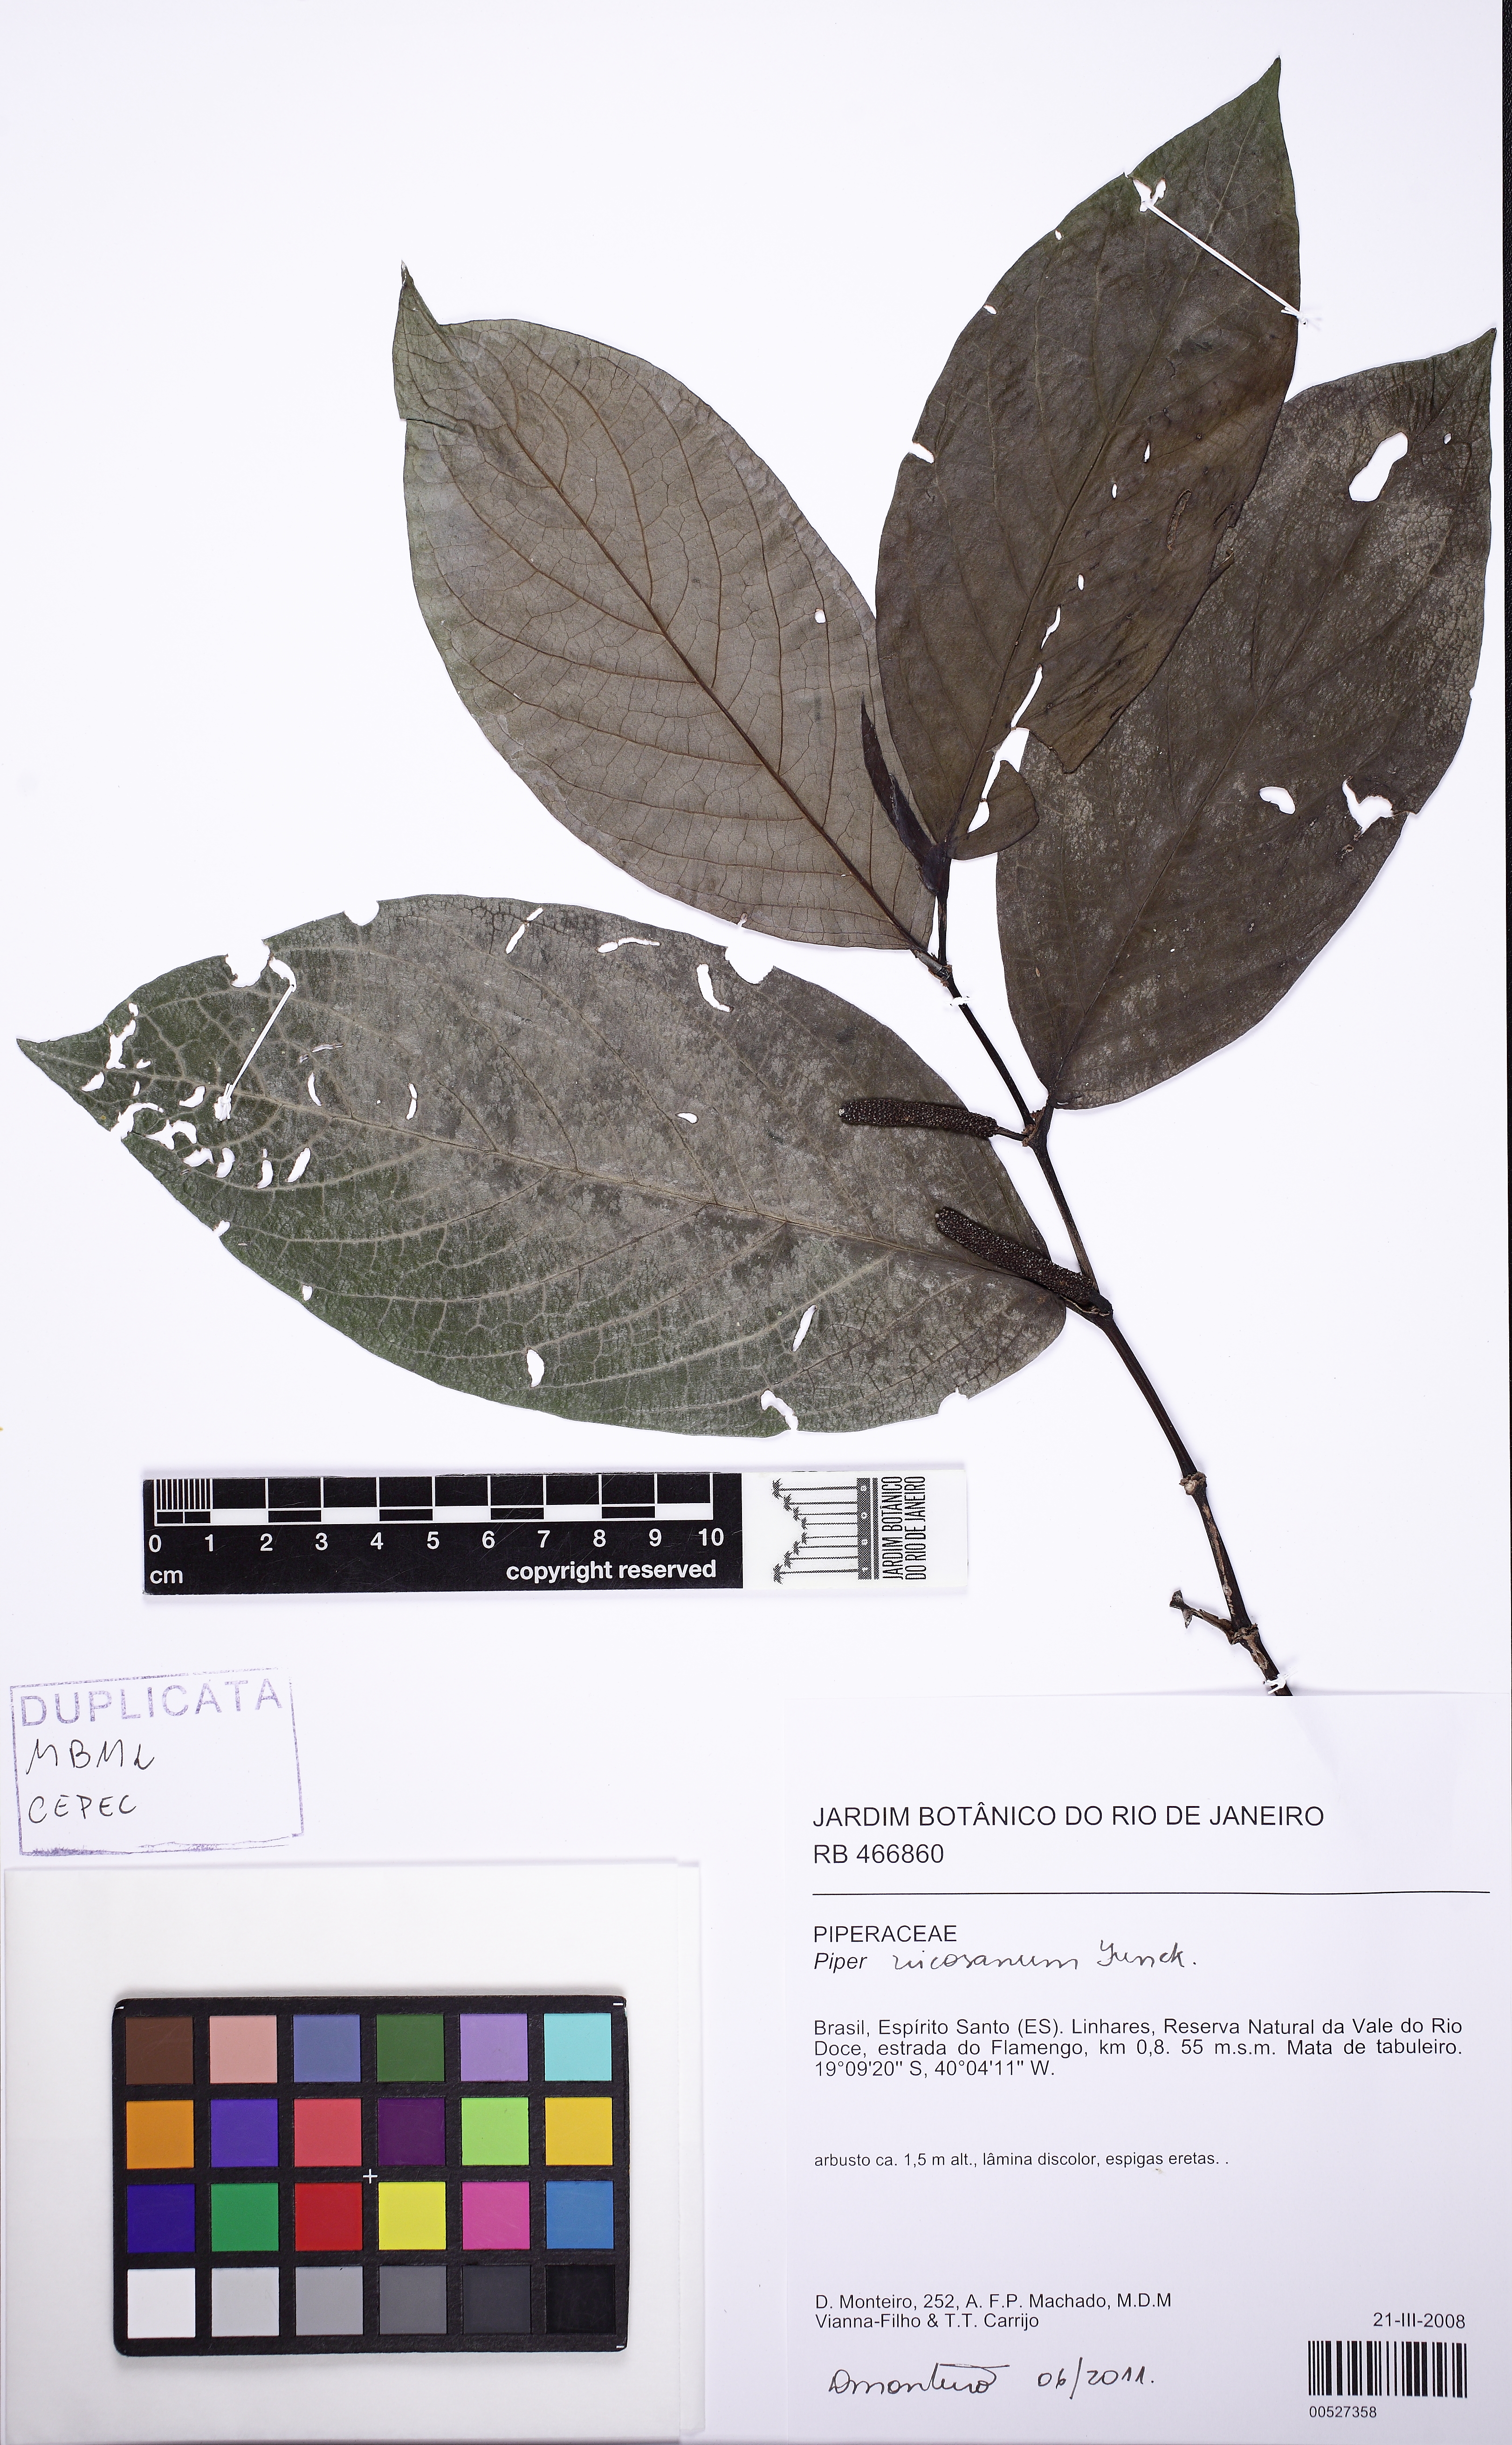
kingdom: Plantae
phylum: Tracheophyta
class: Magnoliopsida
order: Piperales
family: Piperaceae
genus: Piper
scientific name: Piper vicosanum
